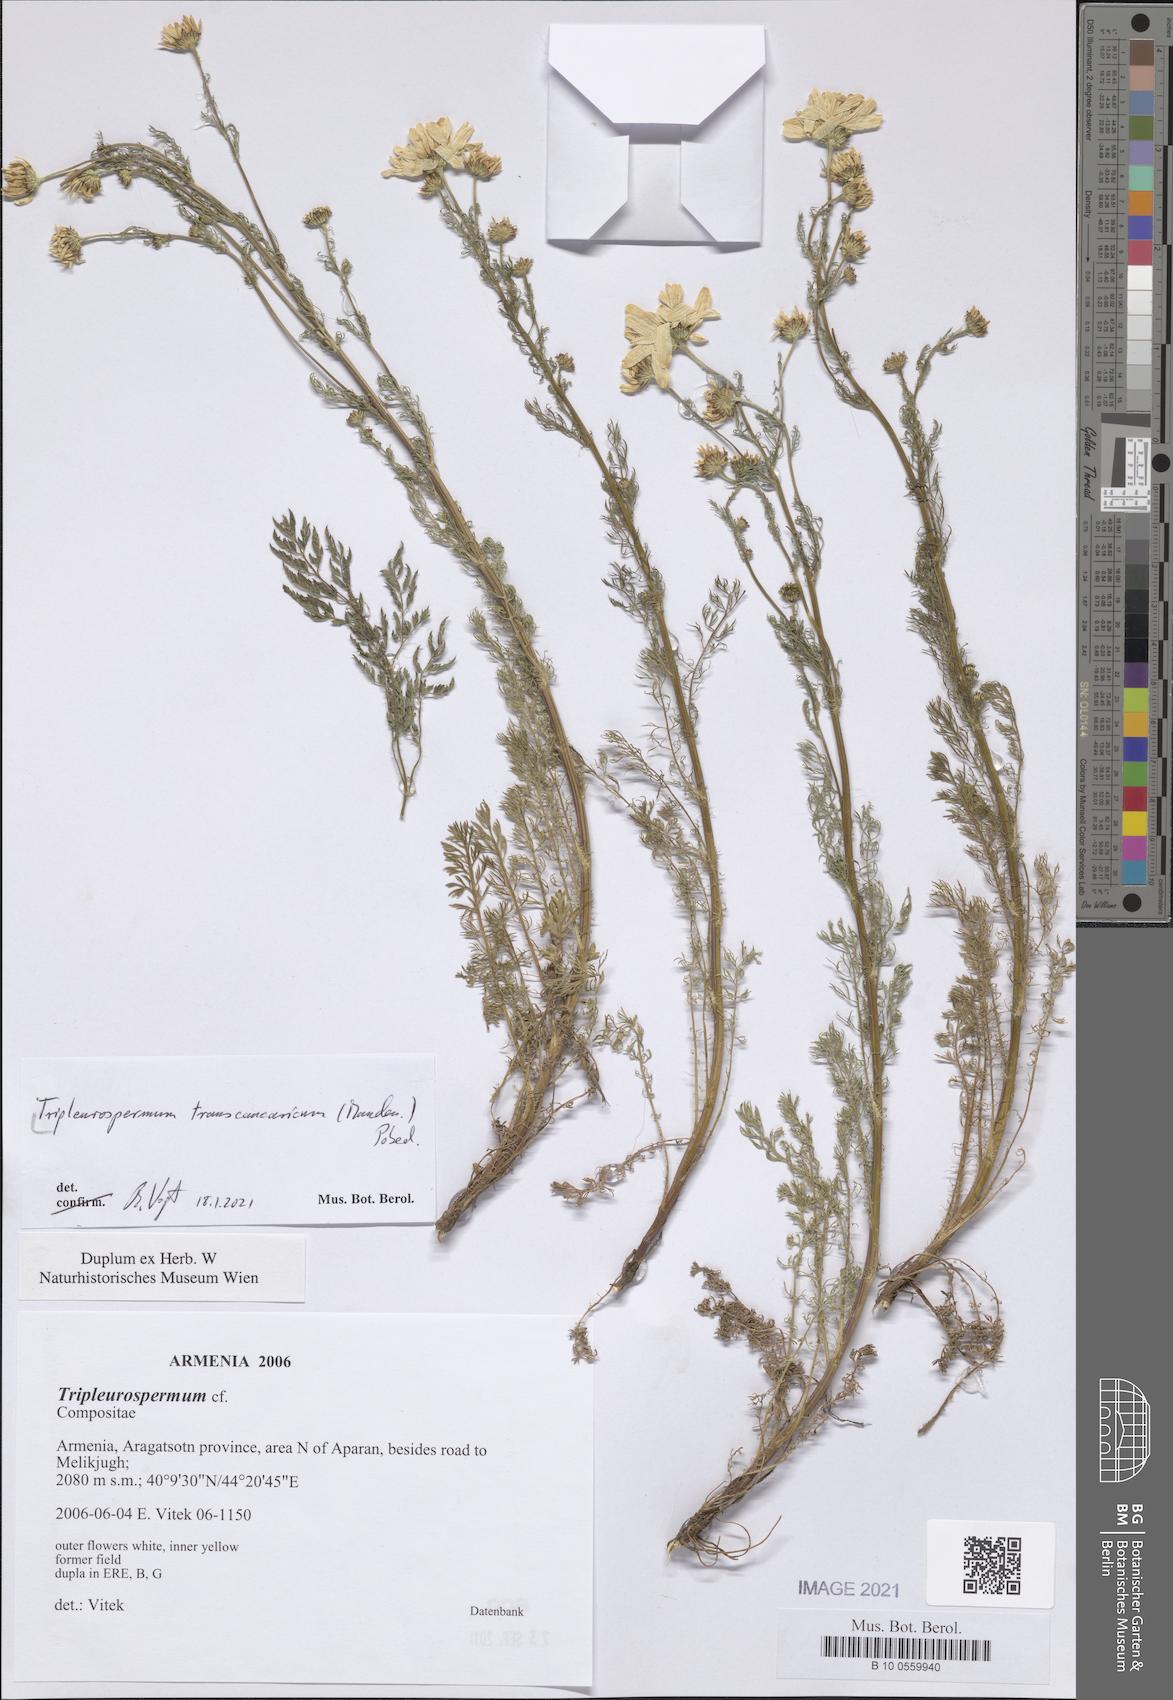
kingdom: Plantae
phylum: Tracheophyta
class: Magnoliopsida
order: Asterales
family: Asteraceae
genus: Tripleurospermum
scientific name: Tripleurospermum transcaucasicum
